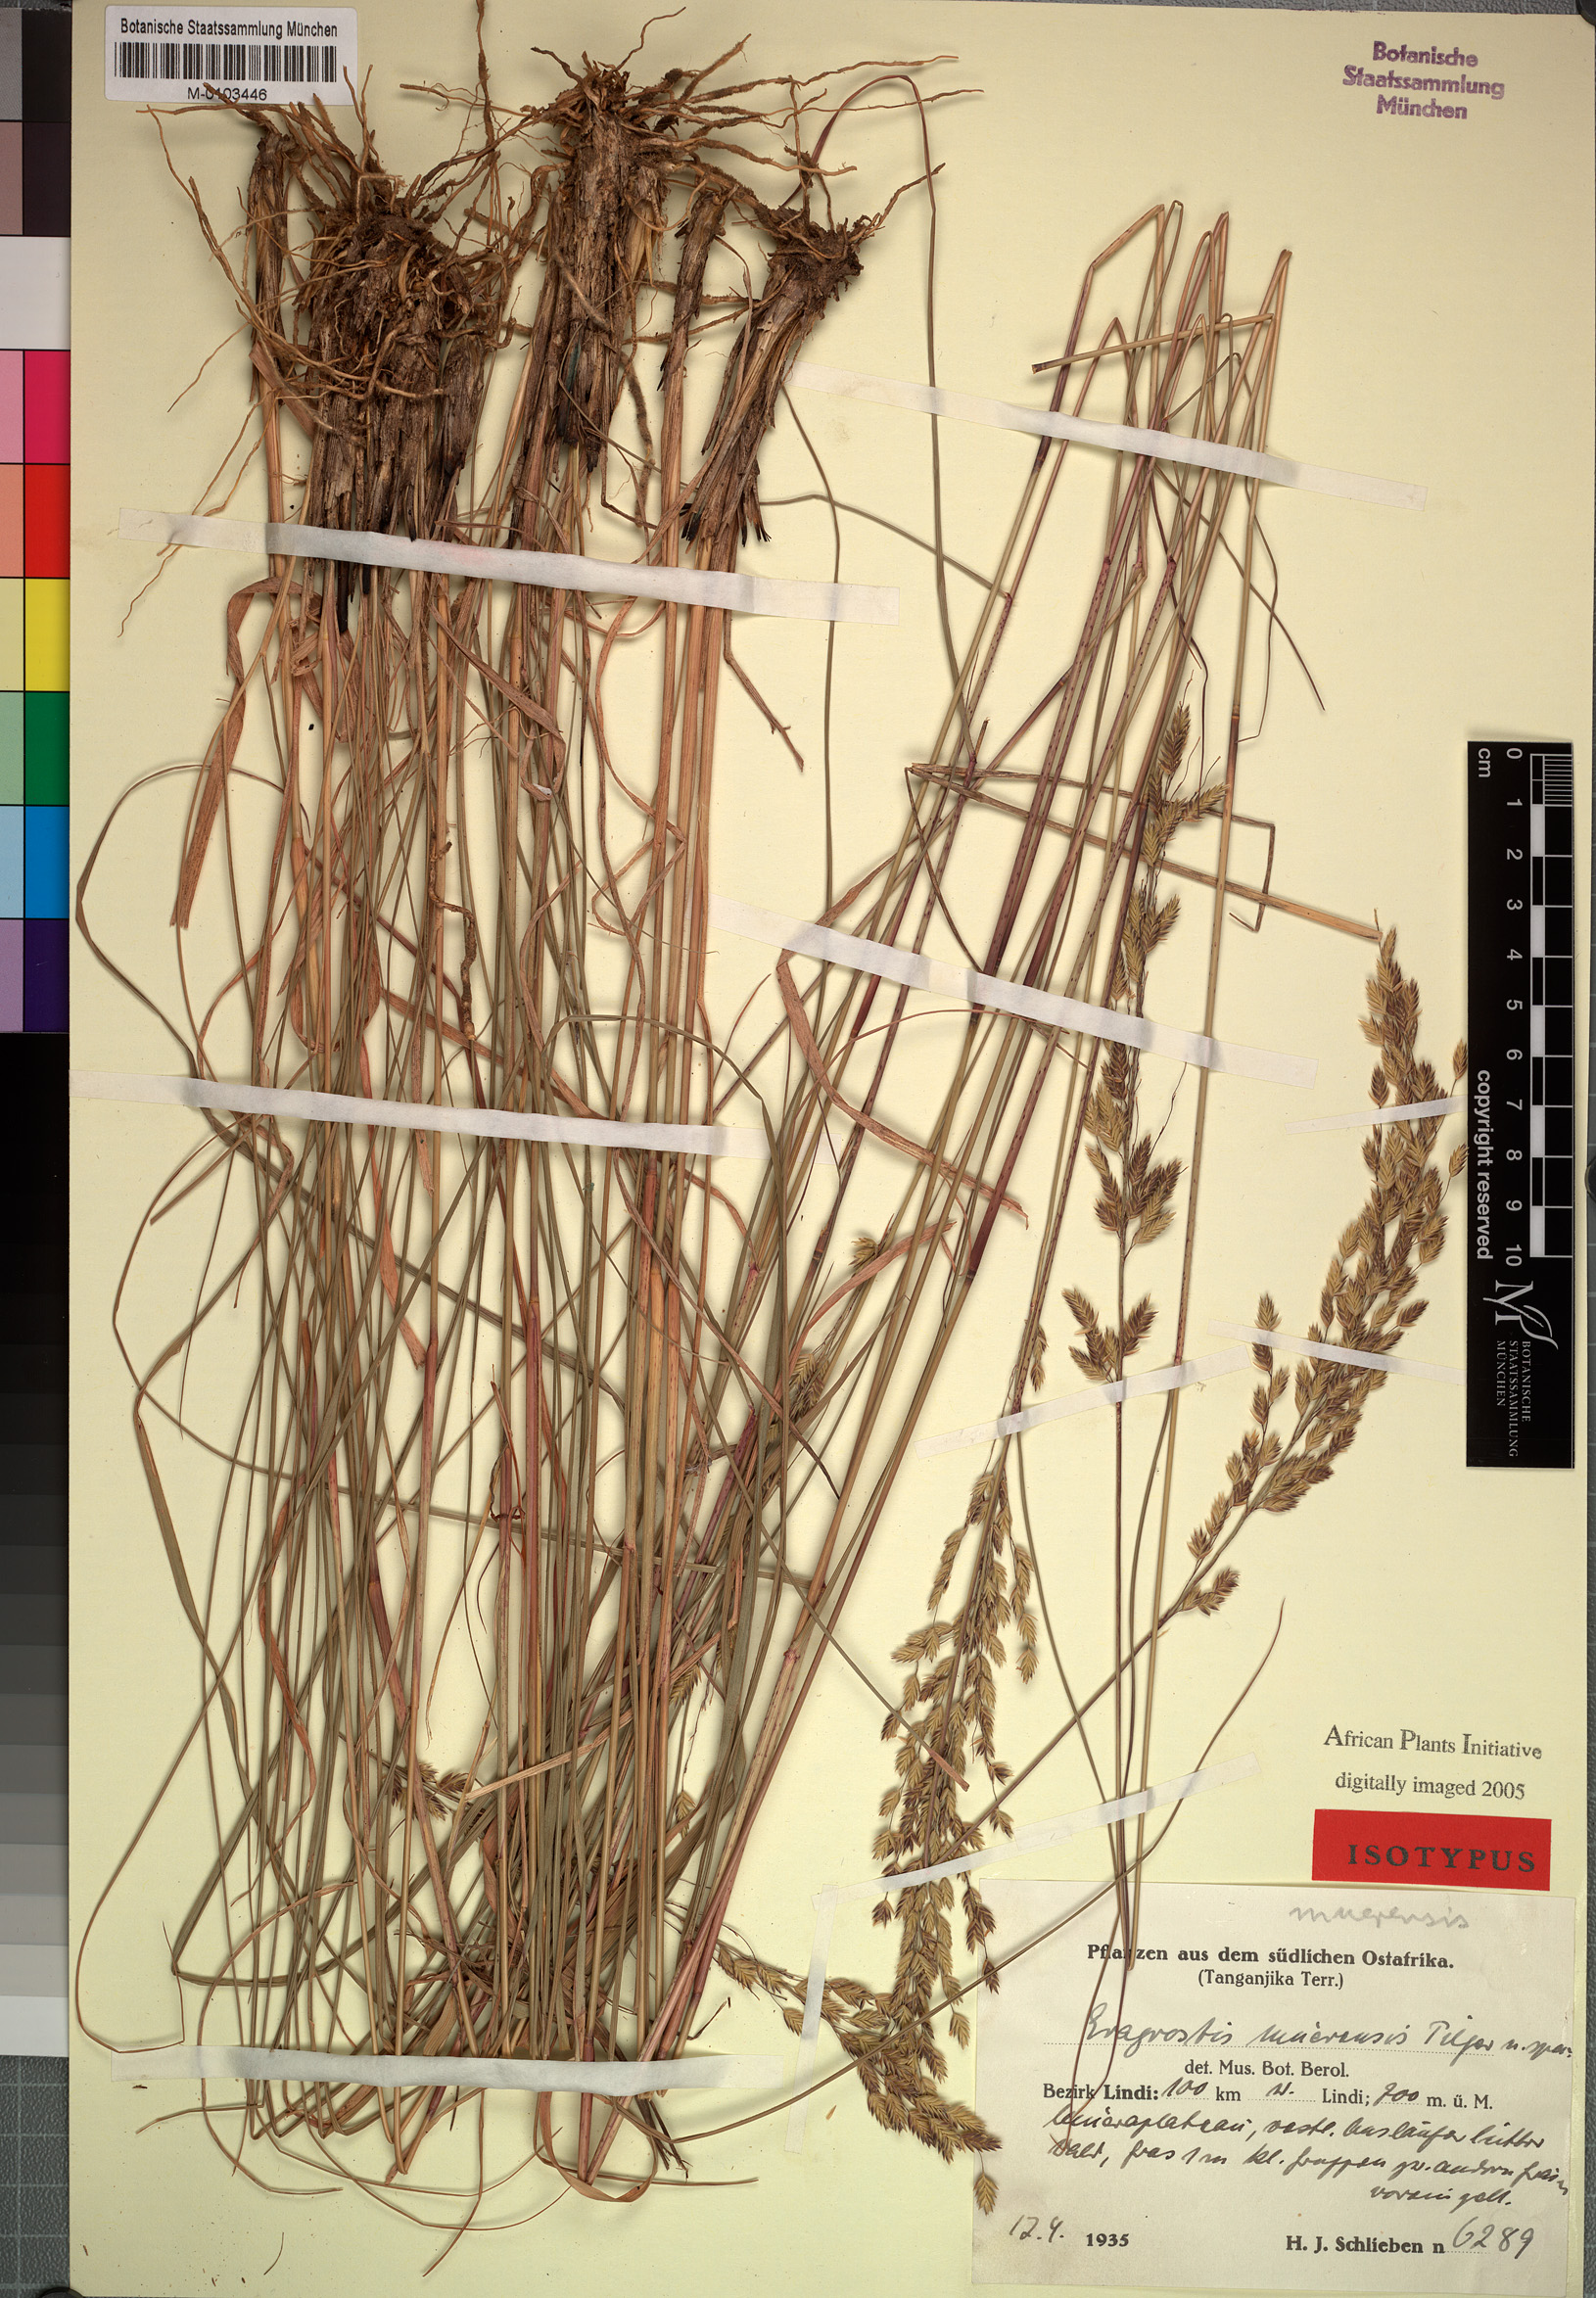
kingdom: Plantae
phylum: Tracheophyta
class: Liliopsida
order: Poales
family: Poaceae
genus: Eragrostis
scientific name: Eragrostis muerensis
